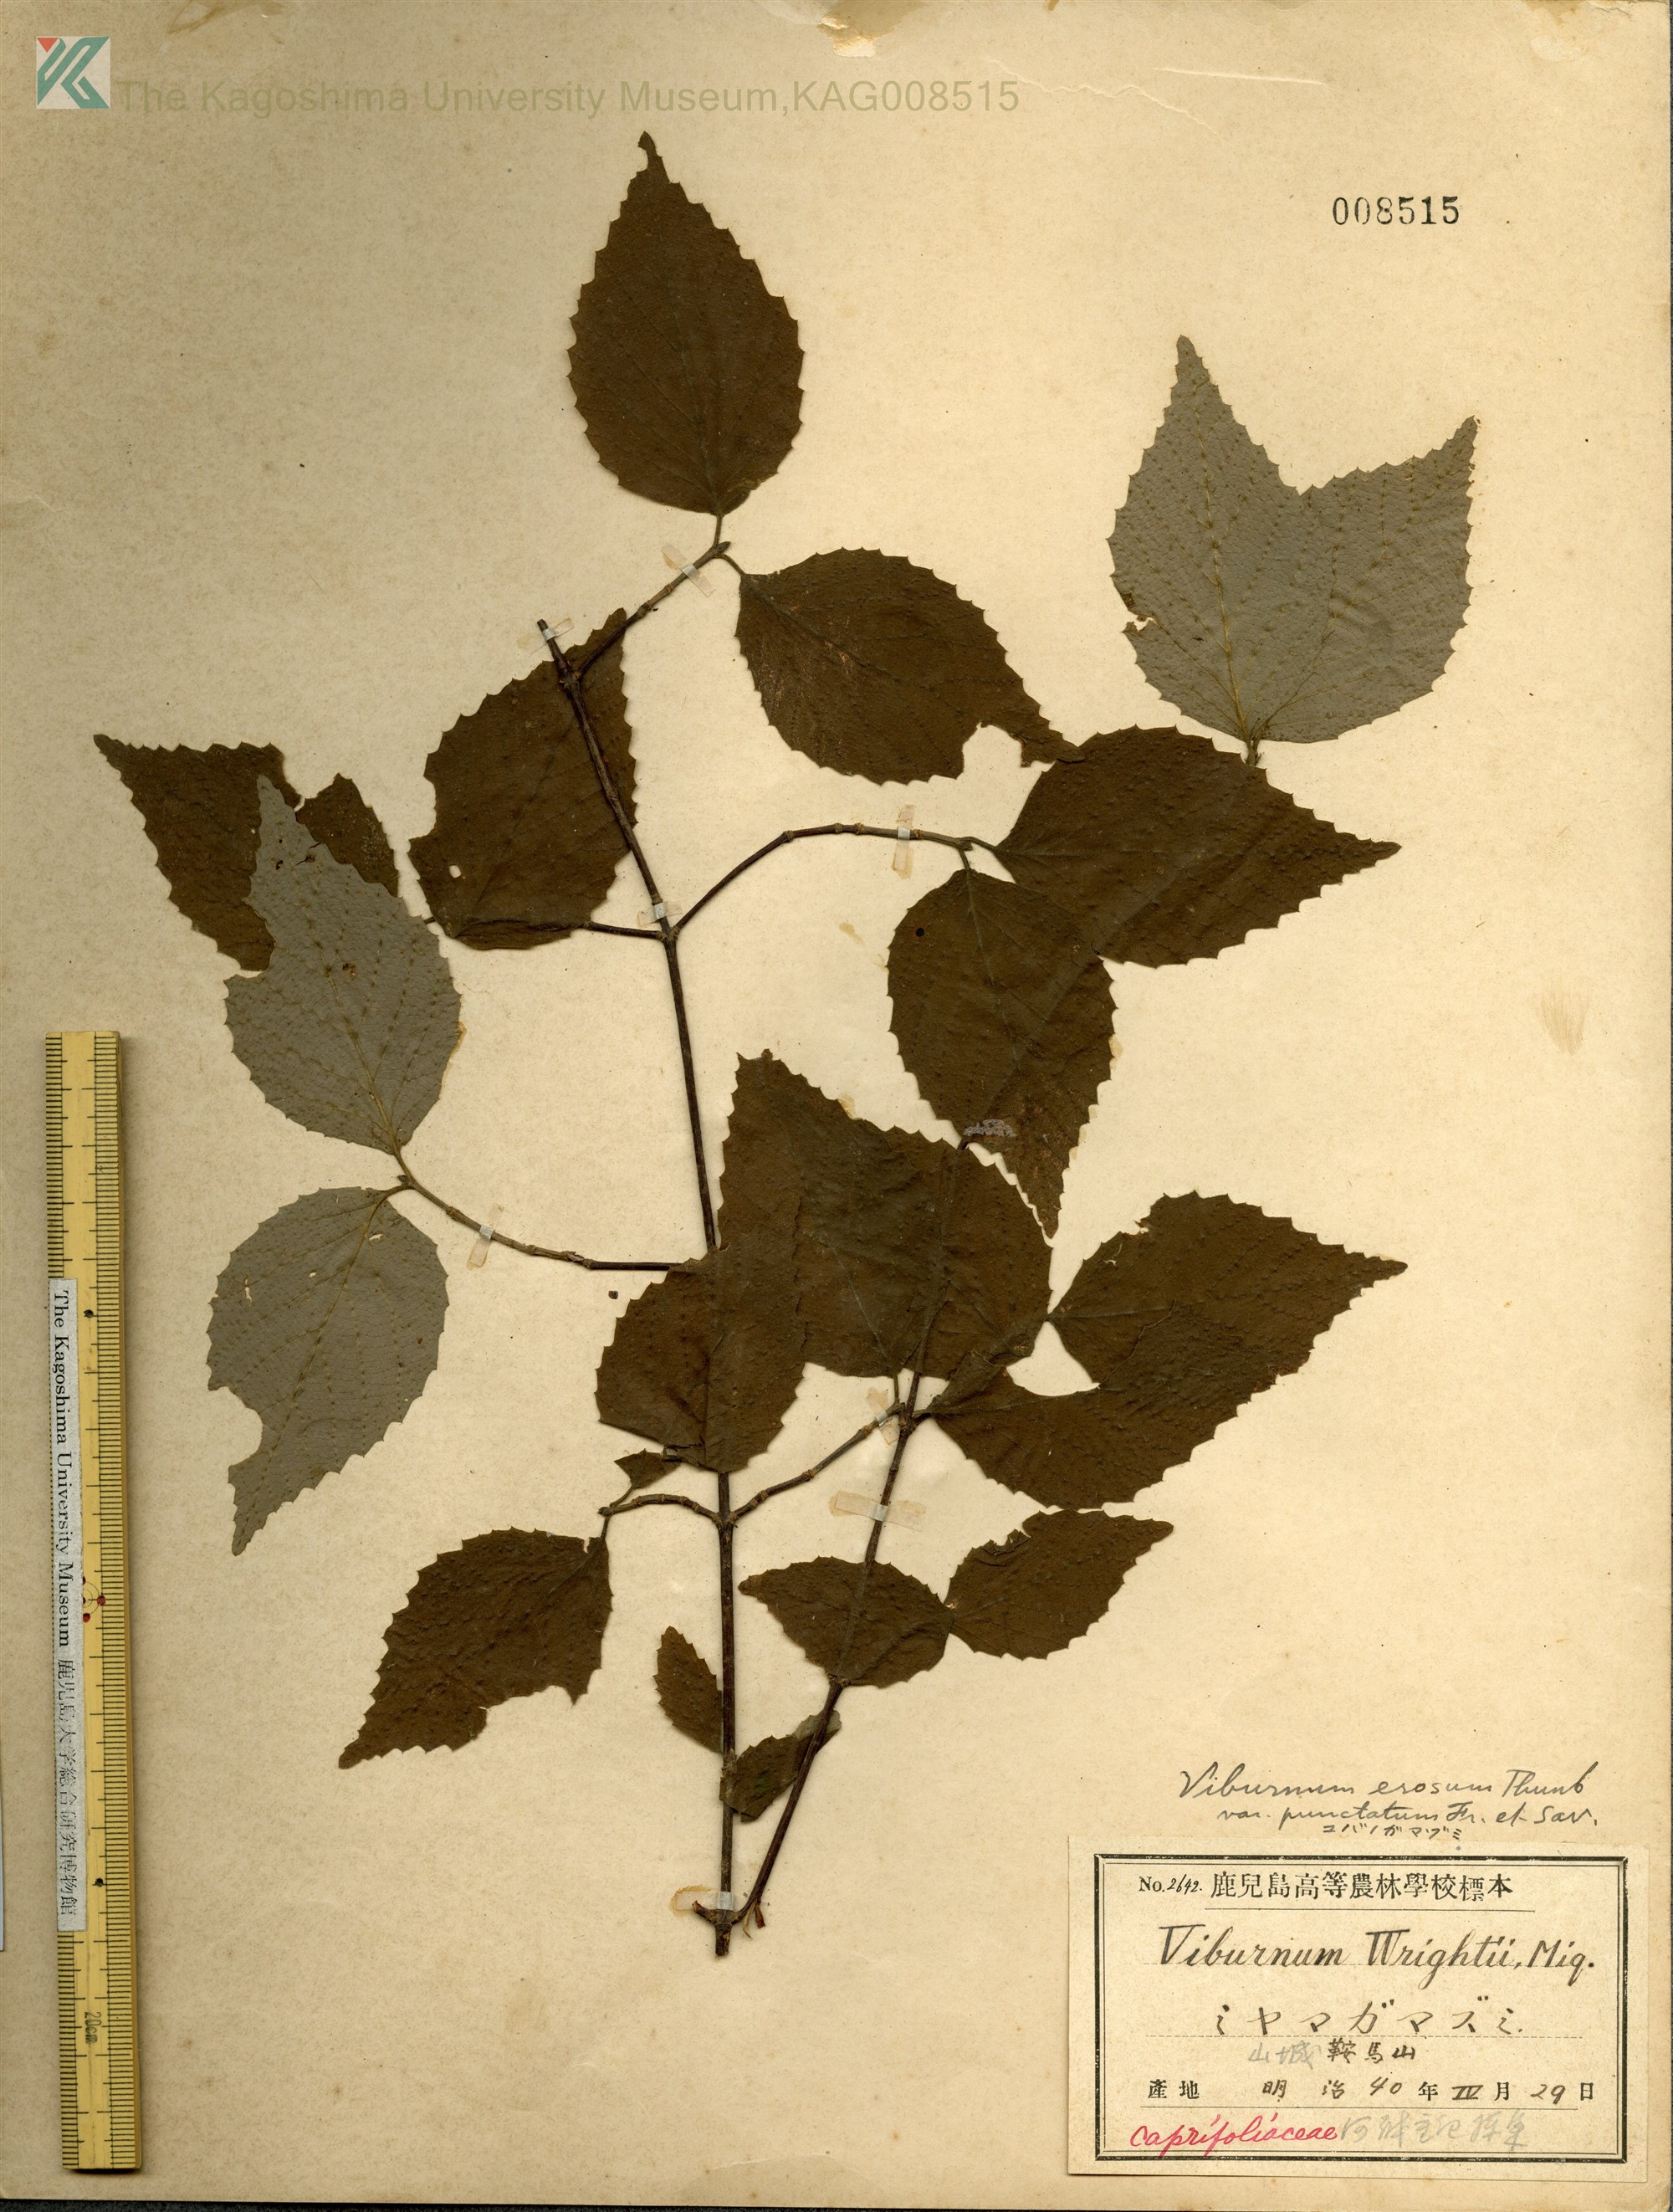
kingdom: Plantae
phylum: Tracheophyta
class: Magnoliopsida
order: Dipsacales
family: Viburnaceae
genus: Viburnum
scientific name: Viburnum erosum
